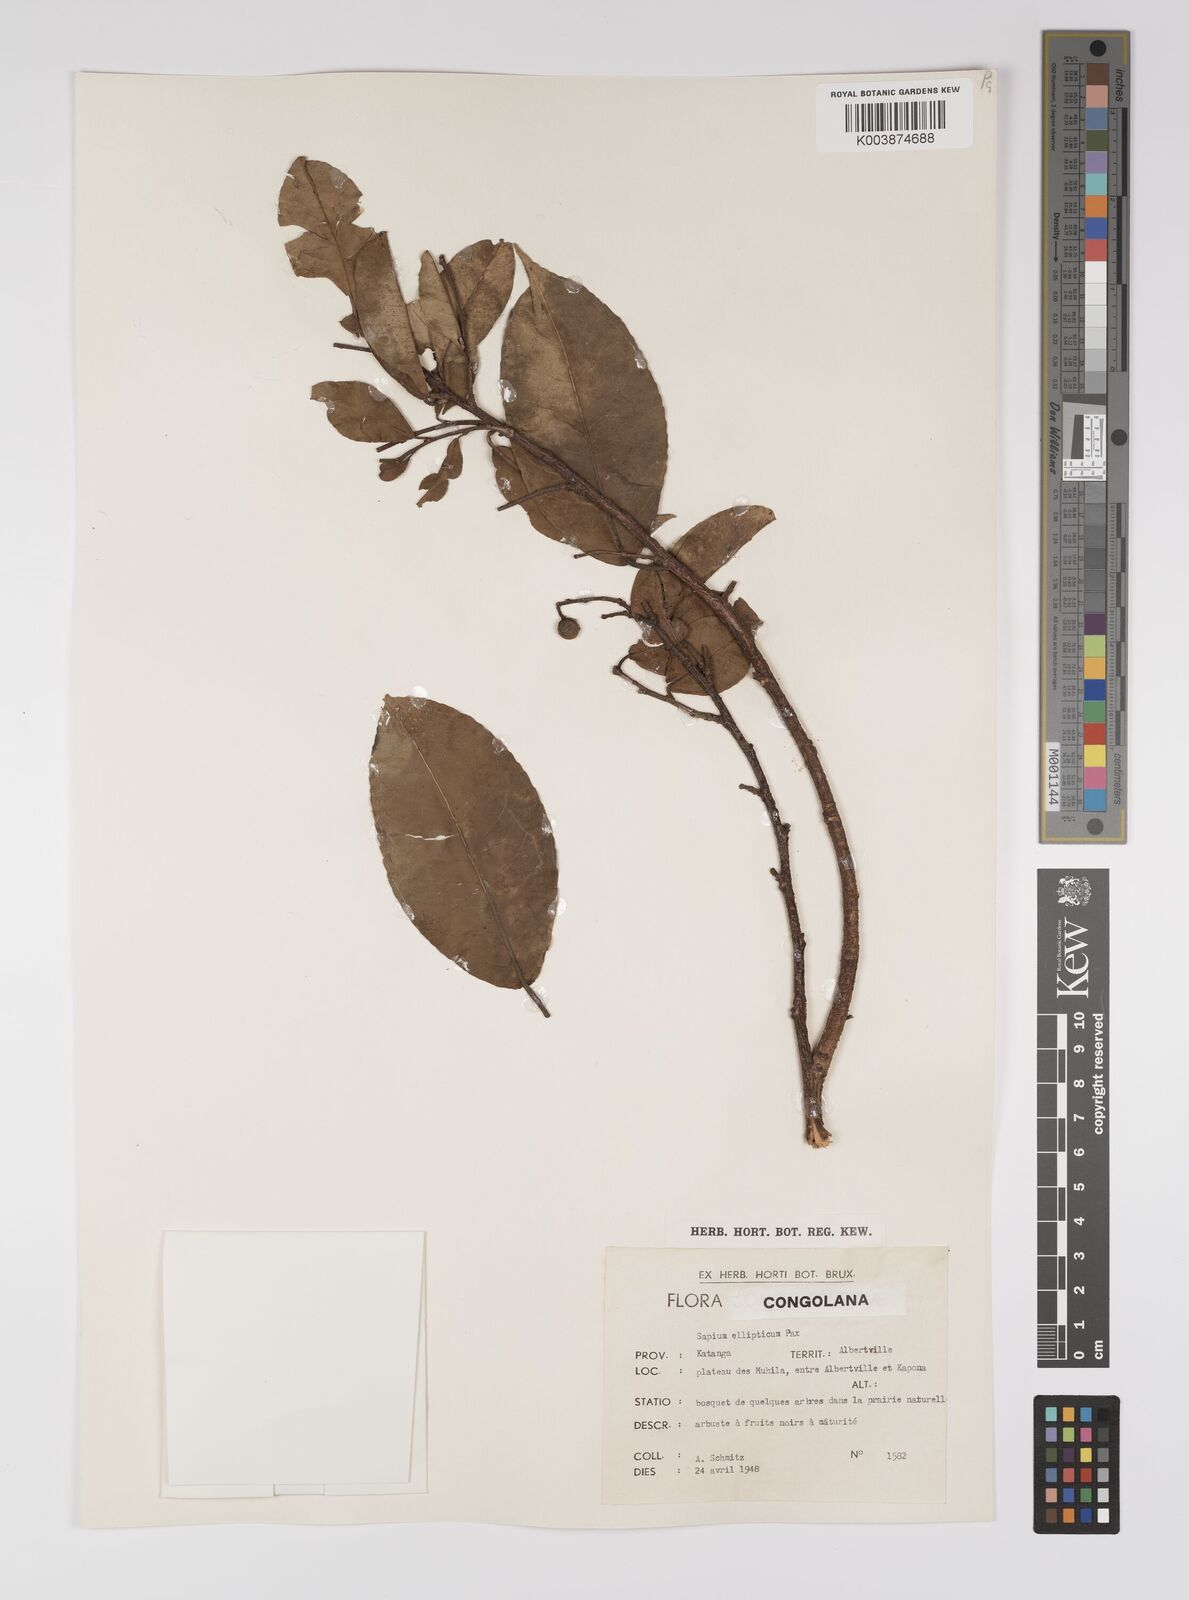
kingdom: Plantae
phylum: Tracheophyta
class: Magnoliopsida
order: Malpighiales
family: Euphorbiaceae
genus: Shirakiopsis
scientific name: Shirakiopsis elliptica
